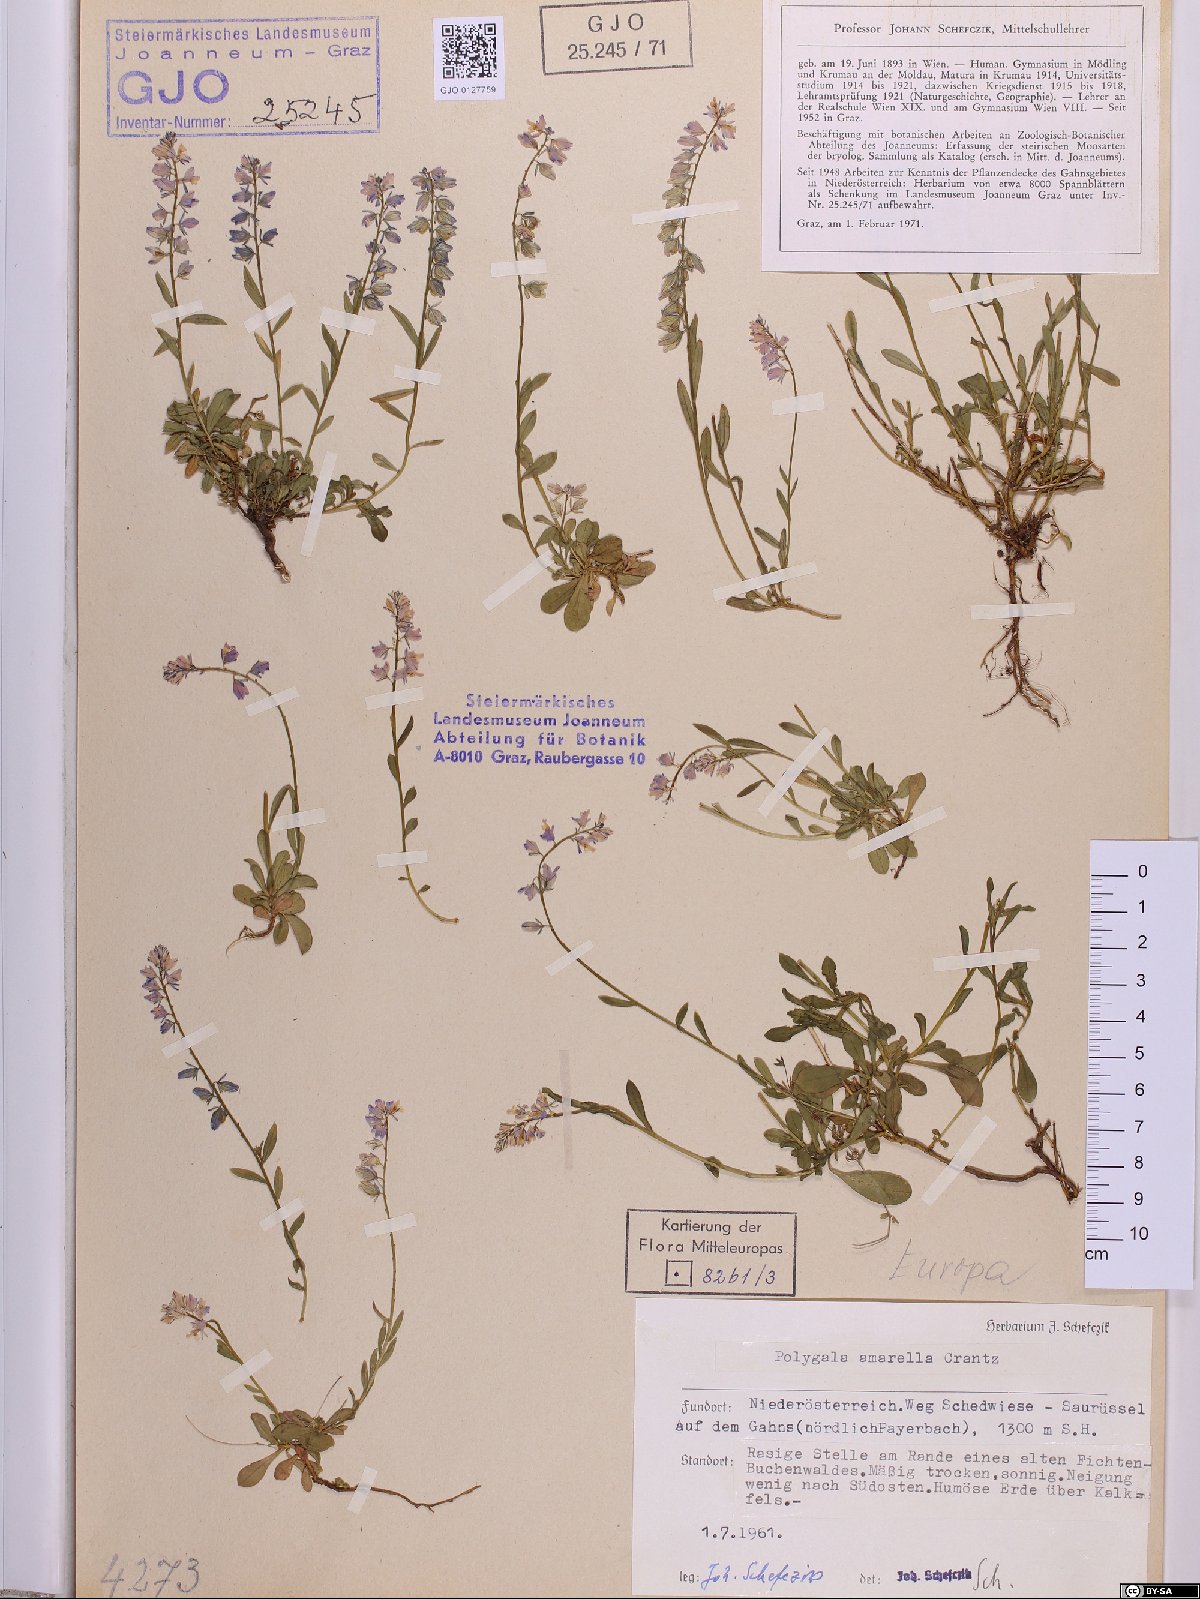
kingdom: Plantae
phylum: Tracheophyta
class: Magnoliopsida
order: Fabales
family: Polygalaceae
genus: Polygala
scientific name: Polygala amarella
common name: Dwarf milkwort
